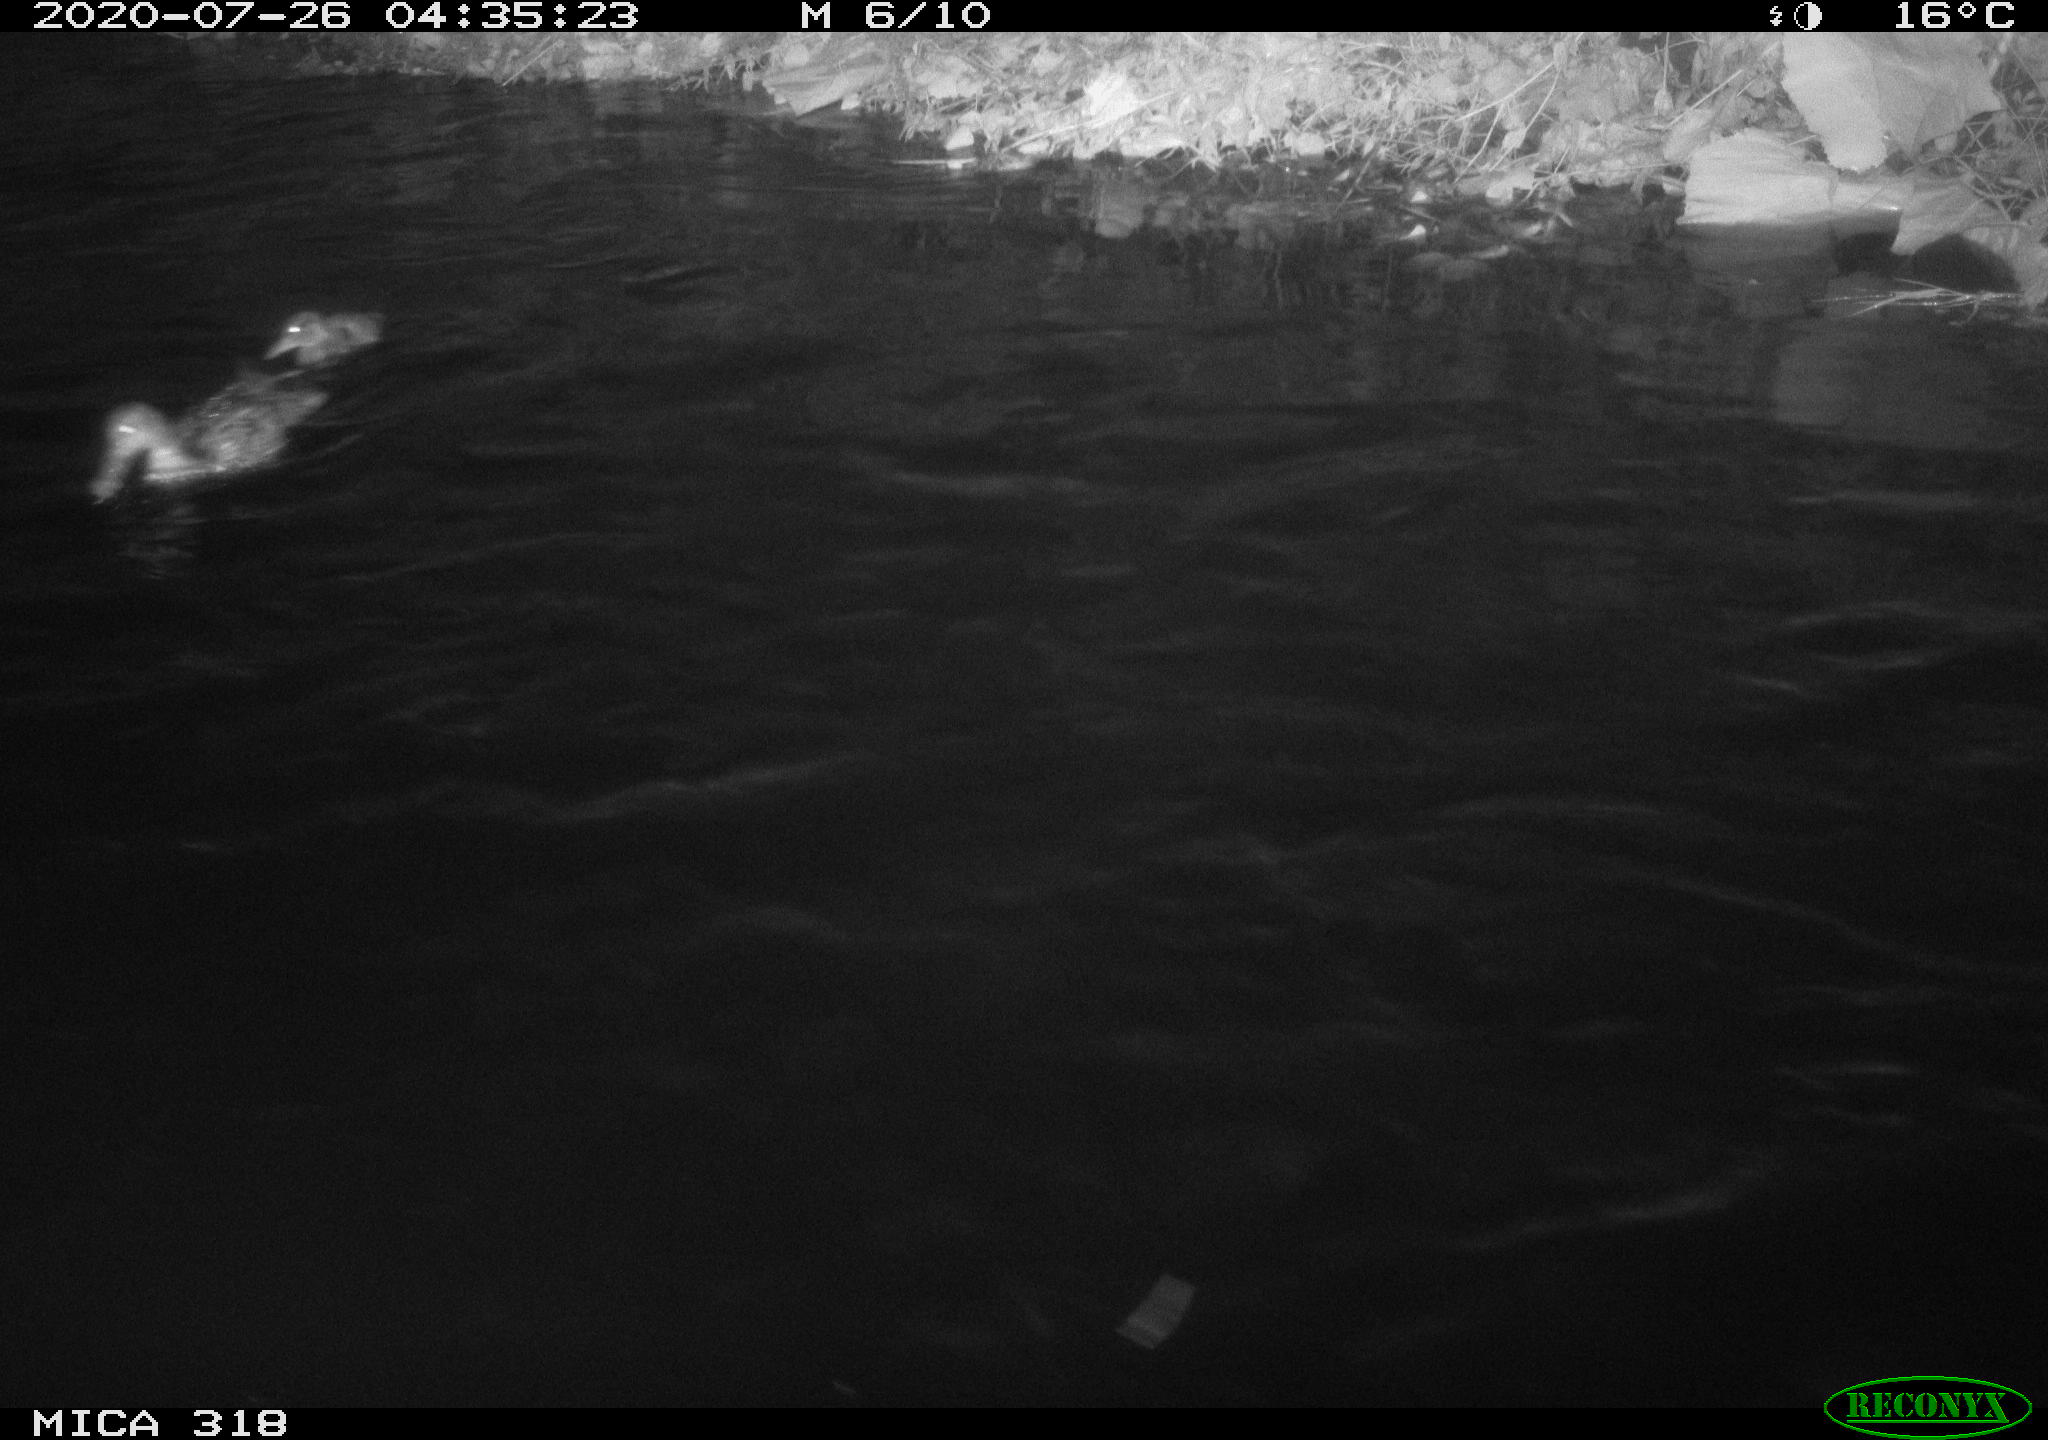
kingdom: Animalia
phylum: Chordata
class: Aves
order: Anseriformes
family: Anatidae
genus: Anas
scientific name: Anas platyrhynchos
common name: Mallard
